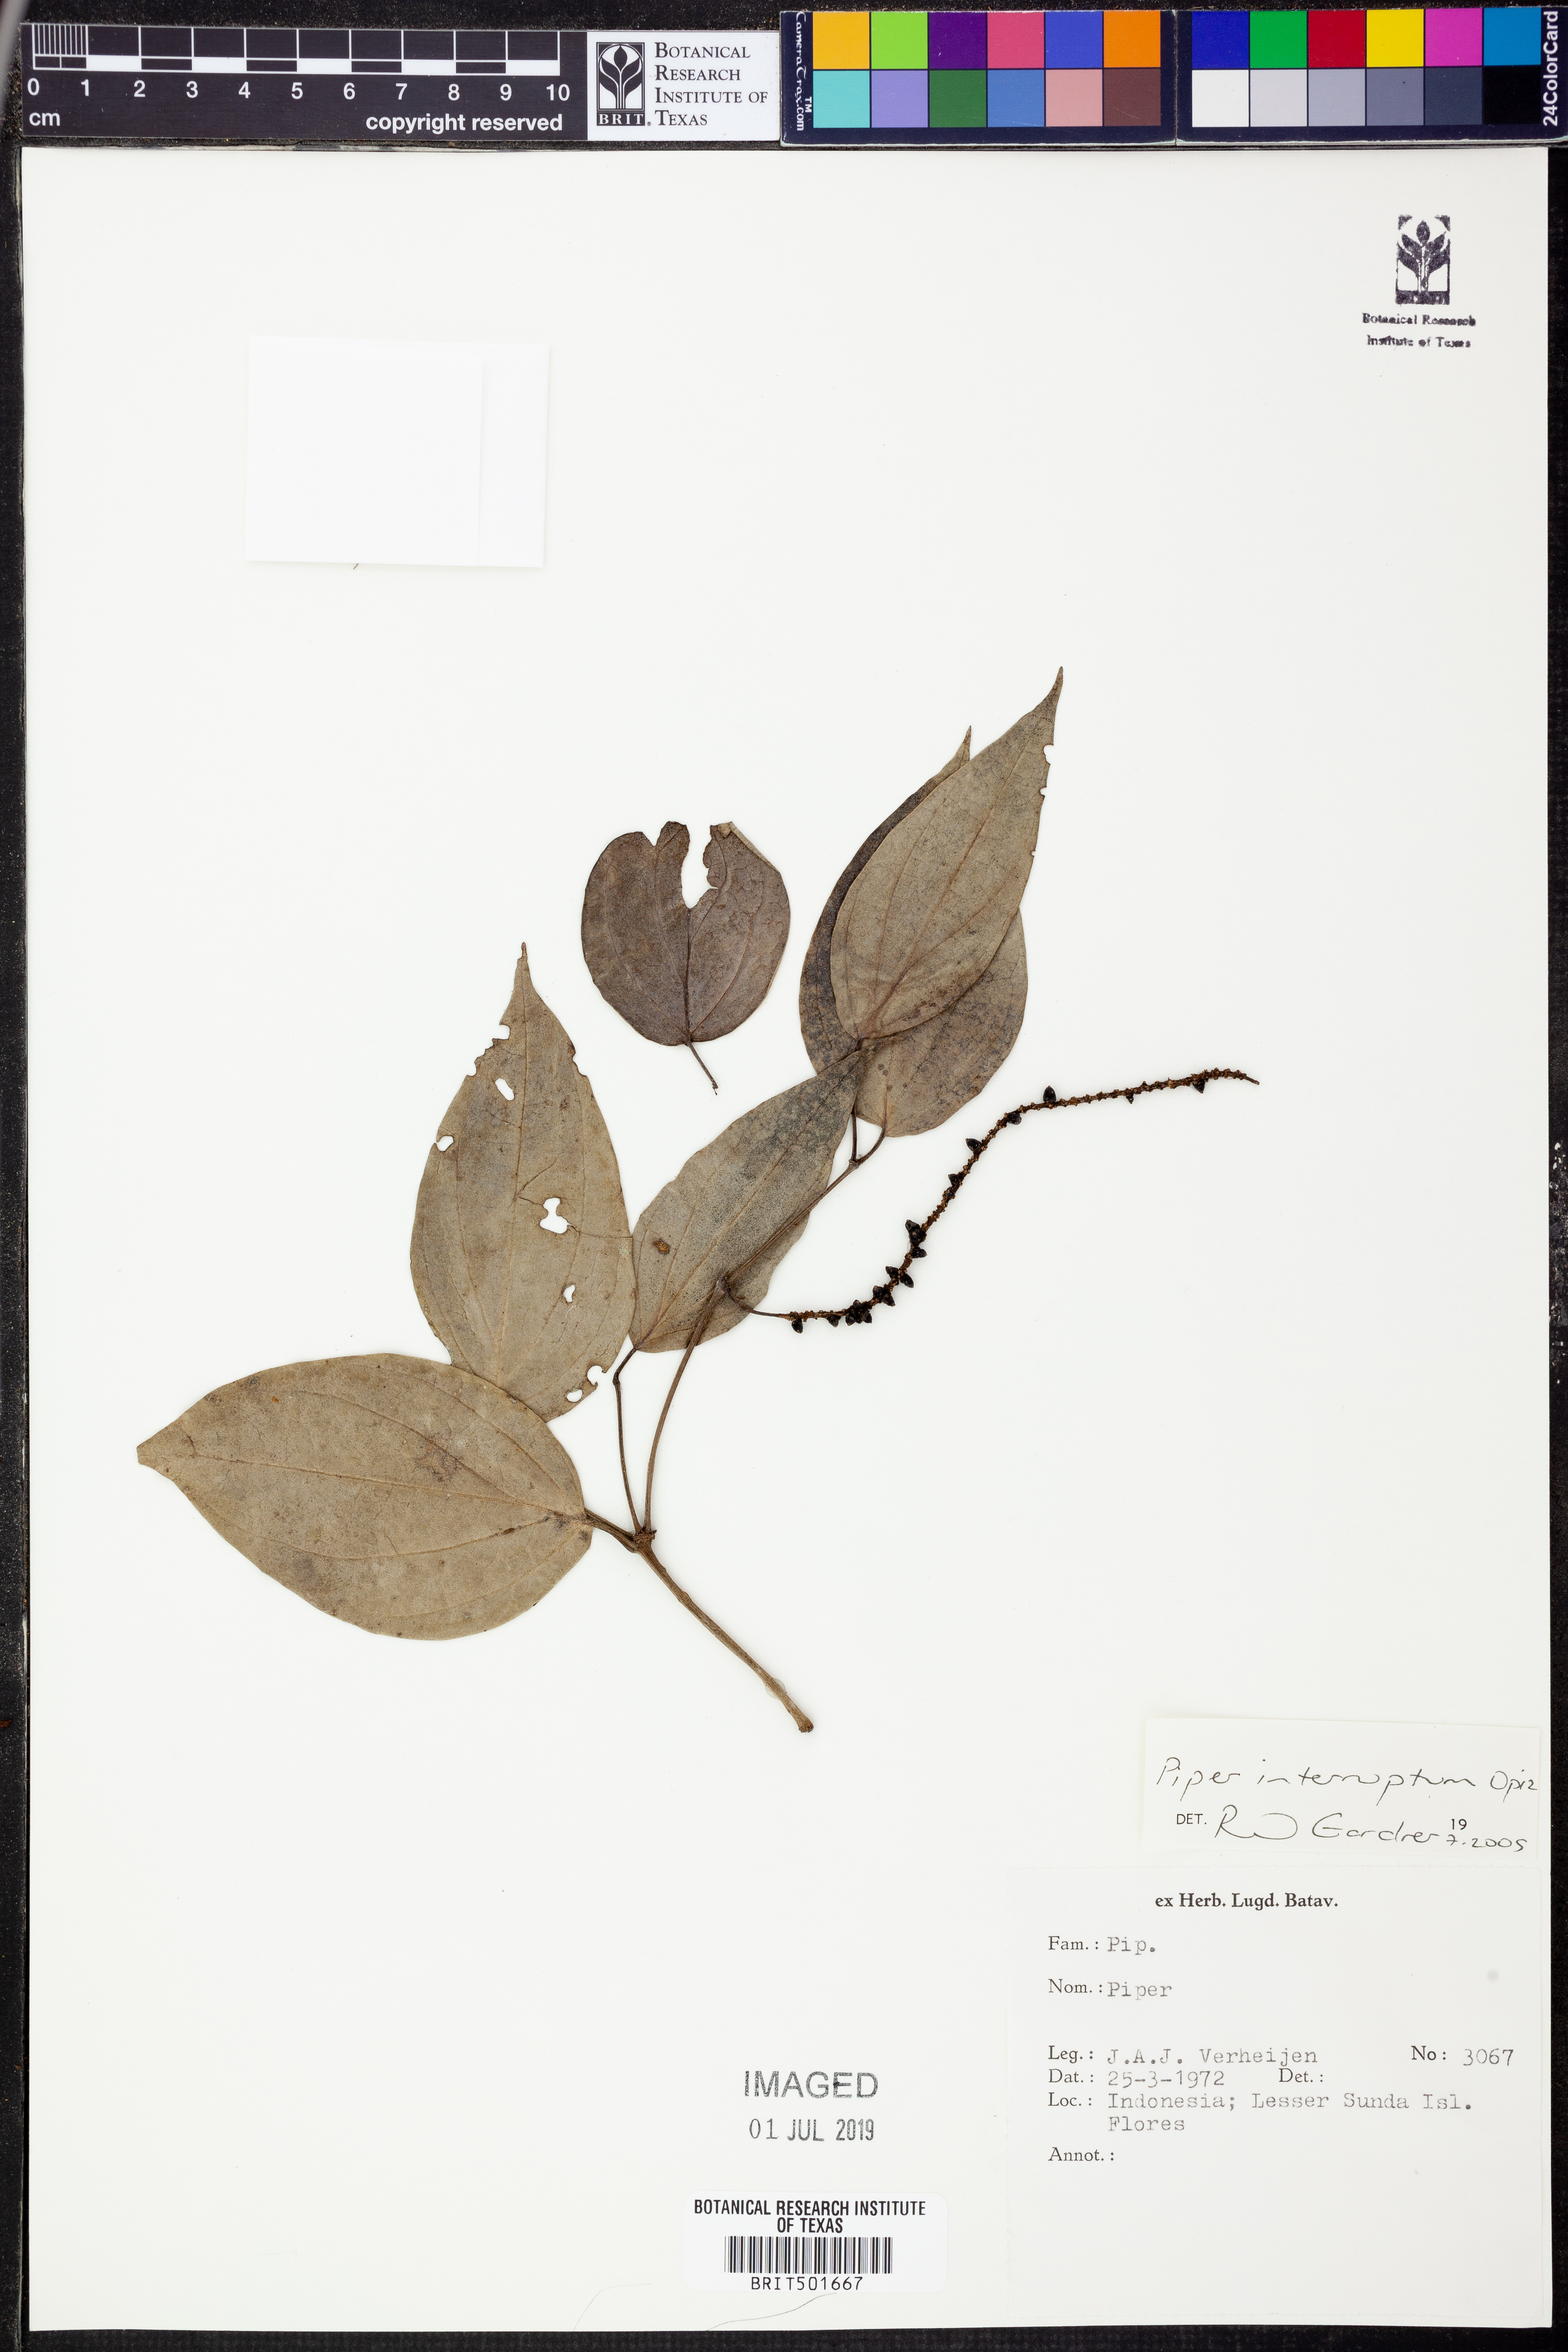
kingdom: Plantae
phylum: Tracheophyta
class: Magnoliopsida
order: Piperales
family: Piperaceae
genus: Piper
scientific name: Piper interruptum
